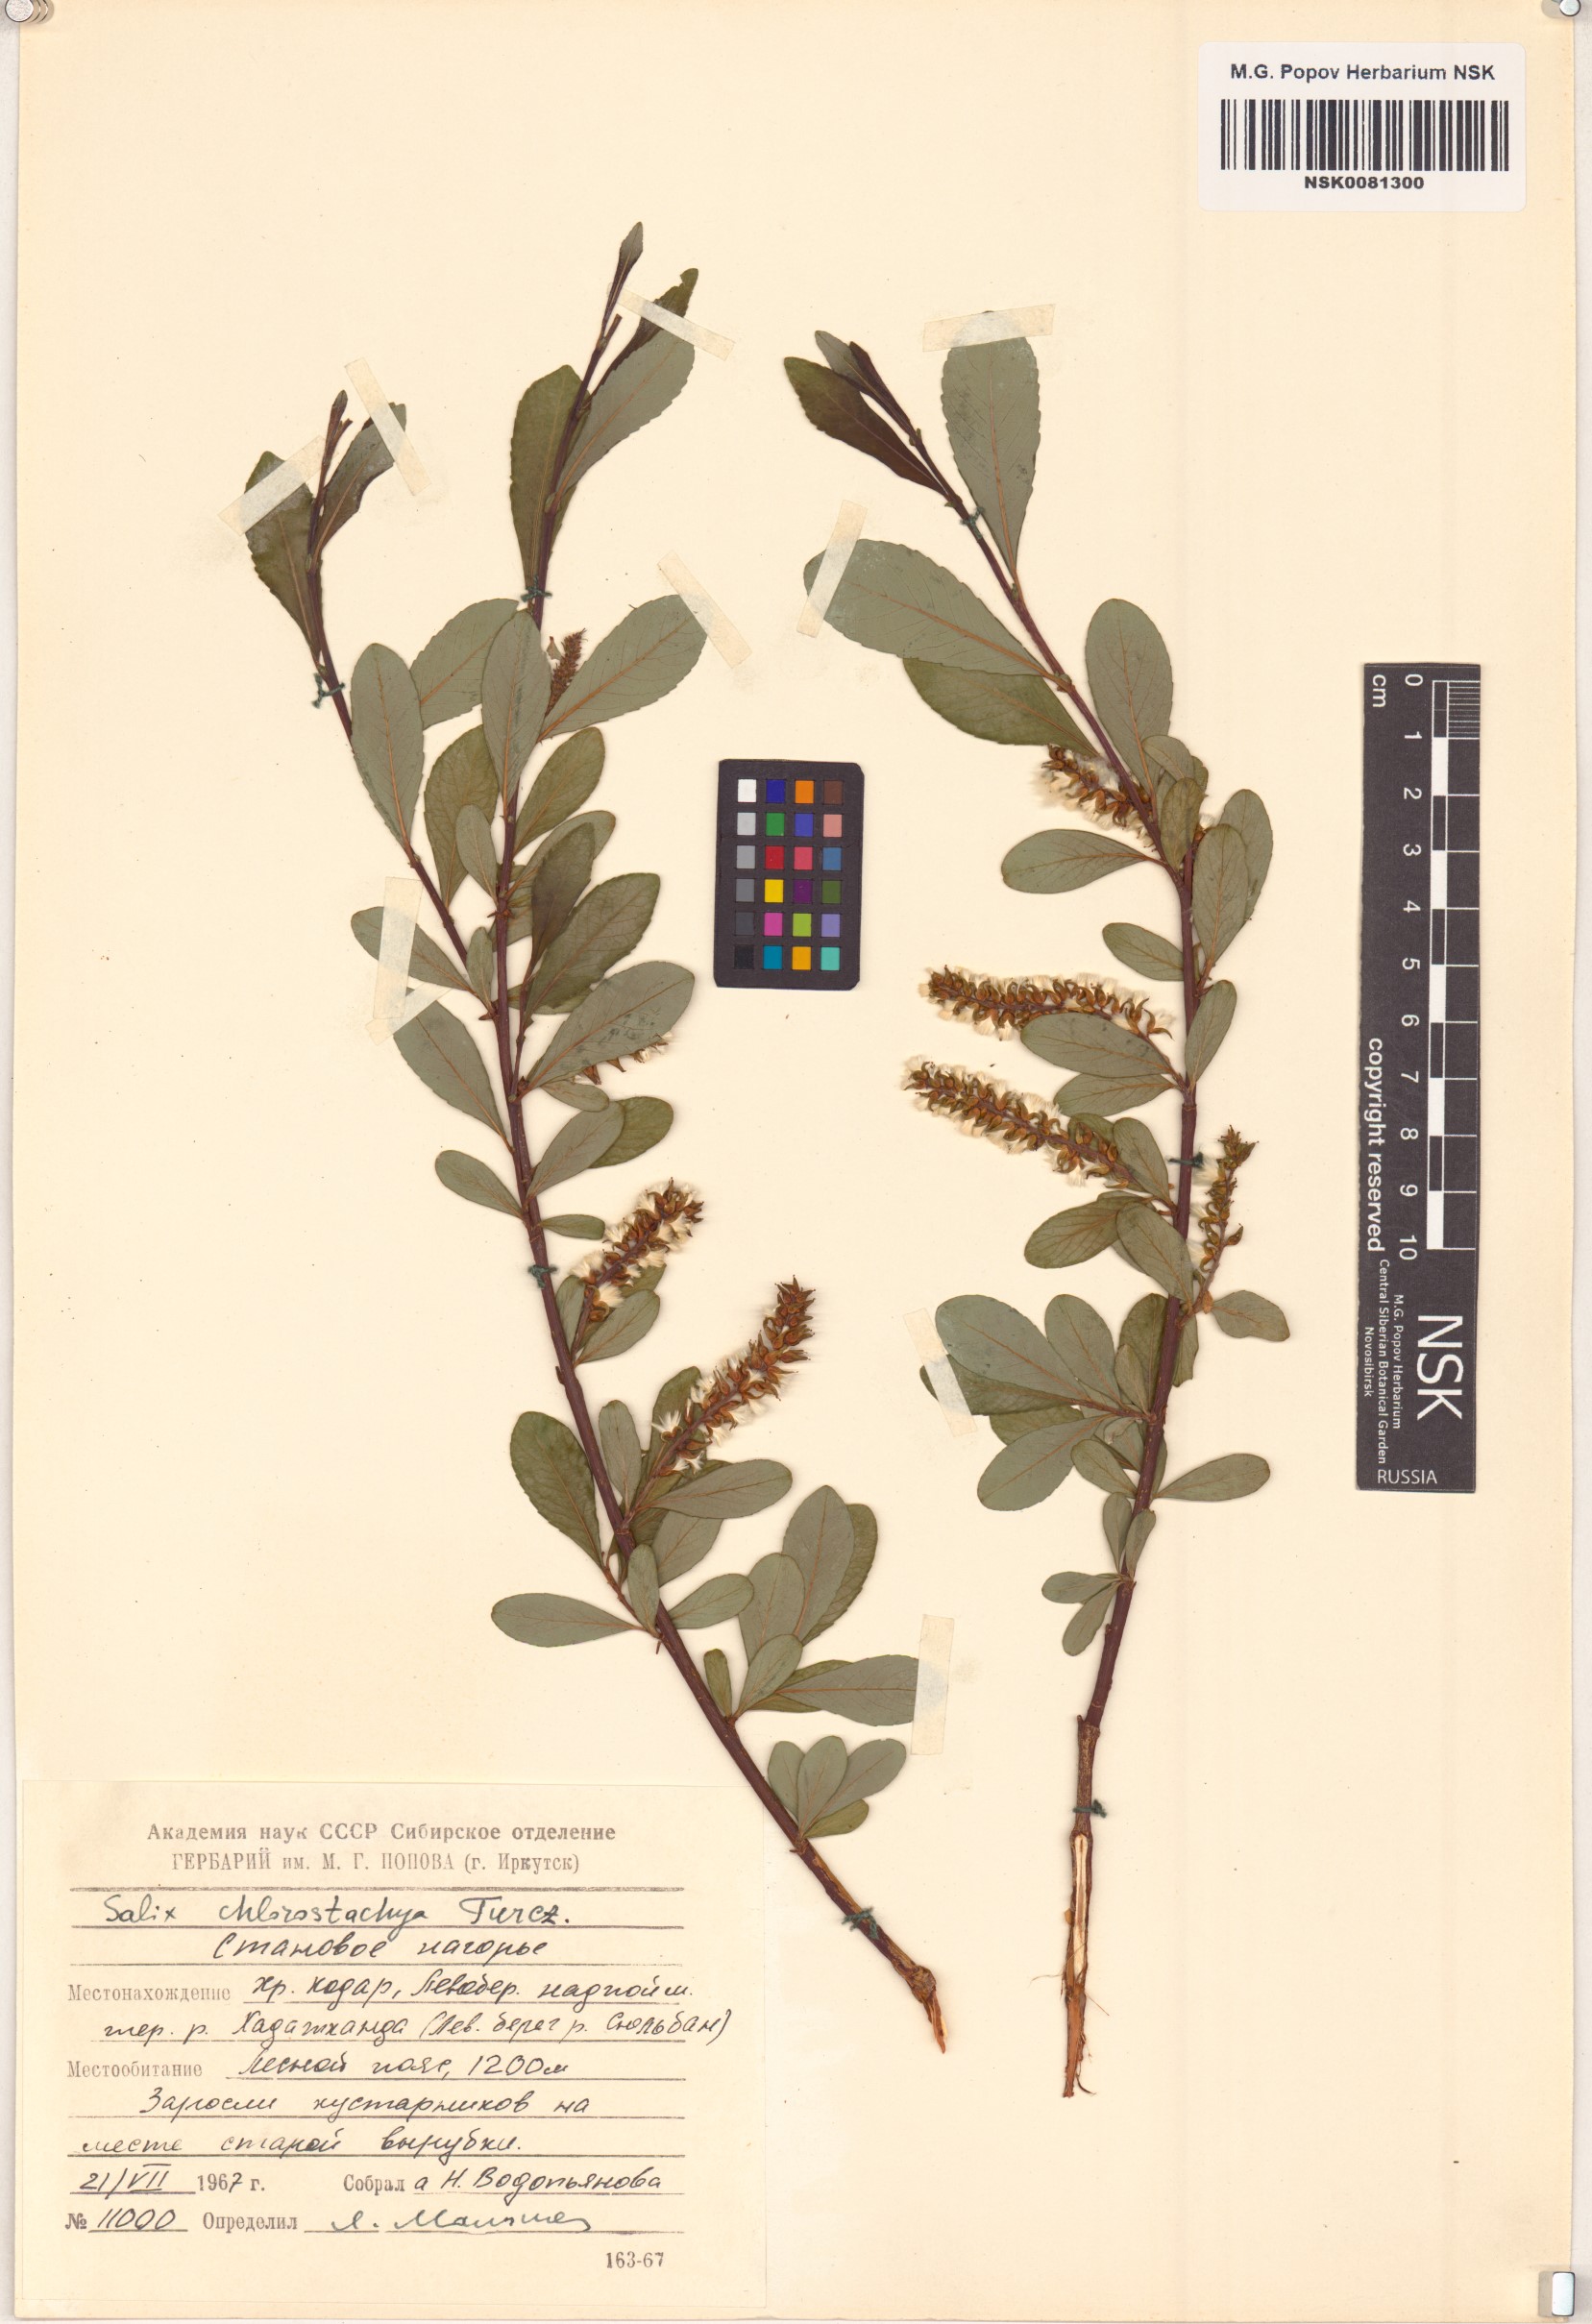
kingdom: Plantae
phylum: Tracheophyta
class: Magnoliopsida
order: Malpighiales
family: Salicaceae
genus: Salix
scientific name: Salix rhamnifolia
